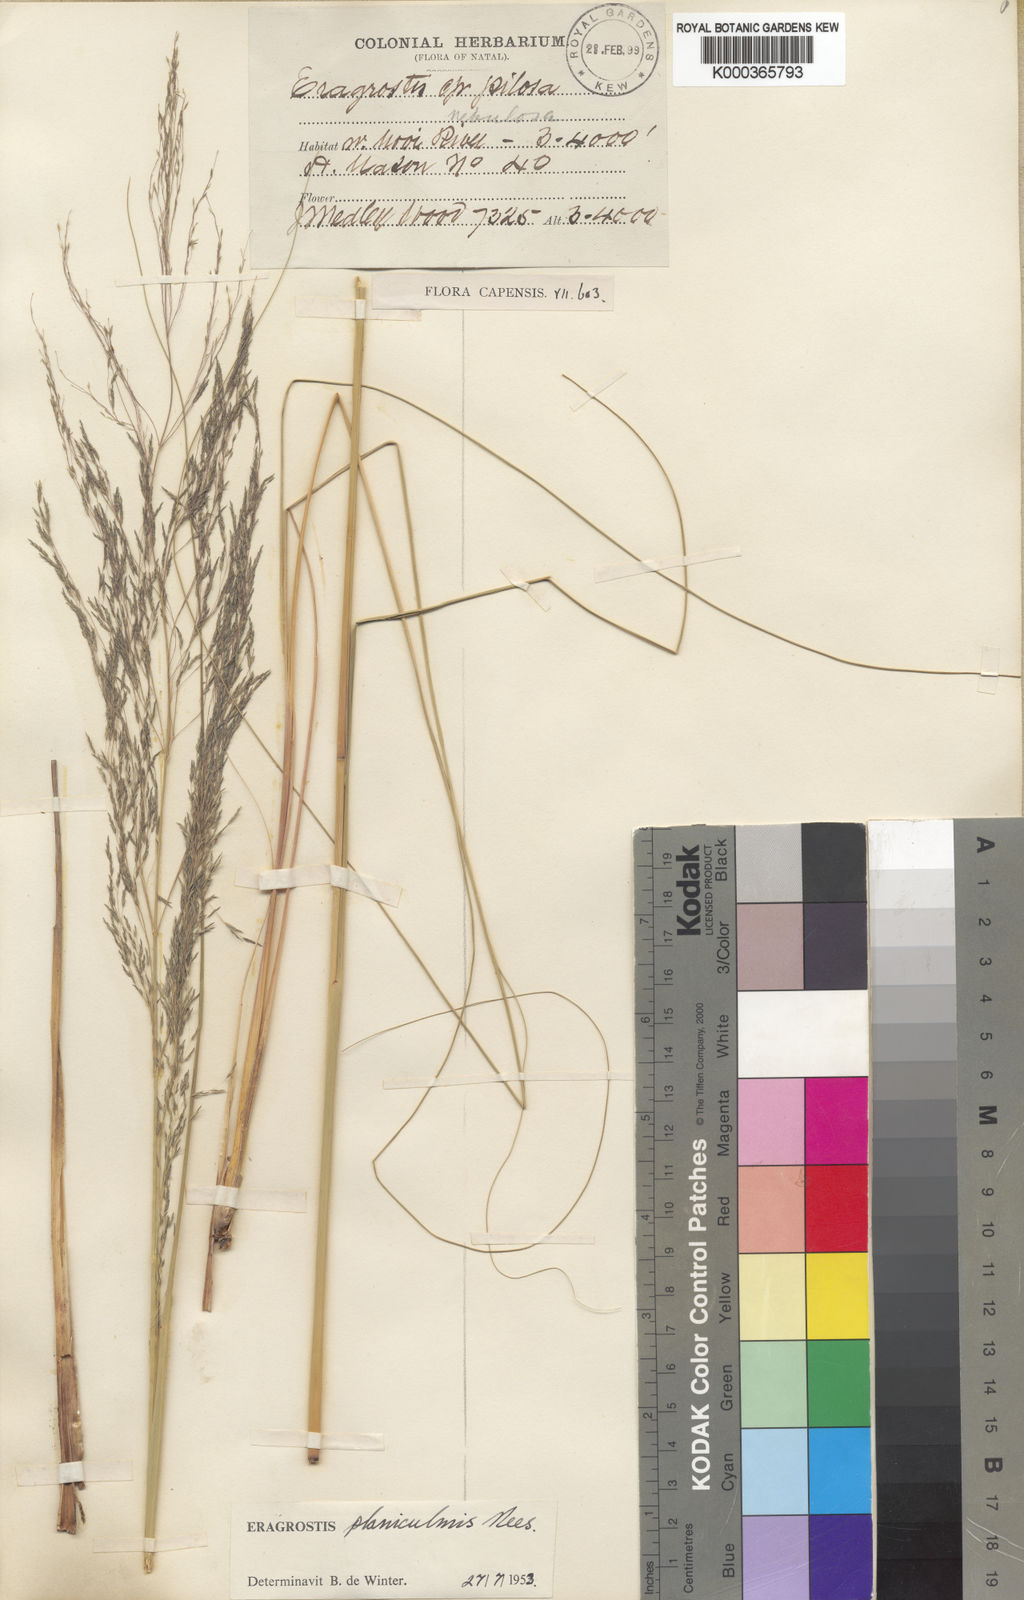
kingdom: Plantae
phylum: Tracheophyta
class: Liliopsida
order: Poales
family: Poaceae
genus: Eragrostis
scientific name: Eragrostis planiculmis
